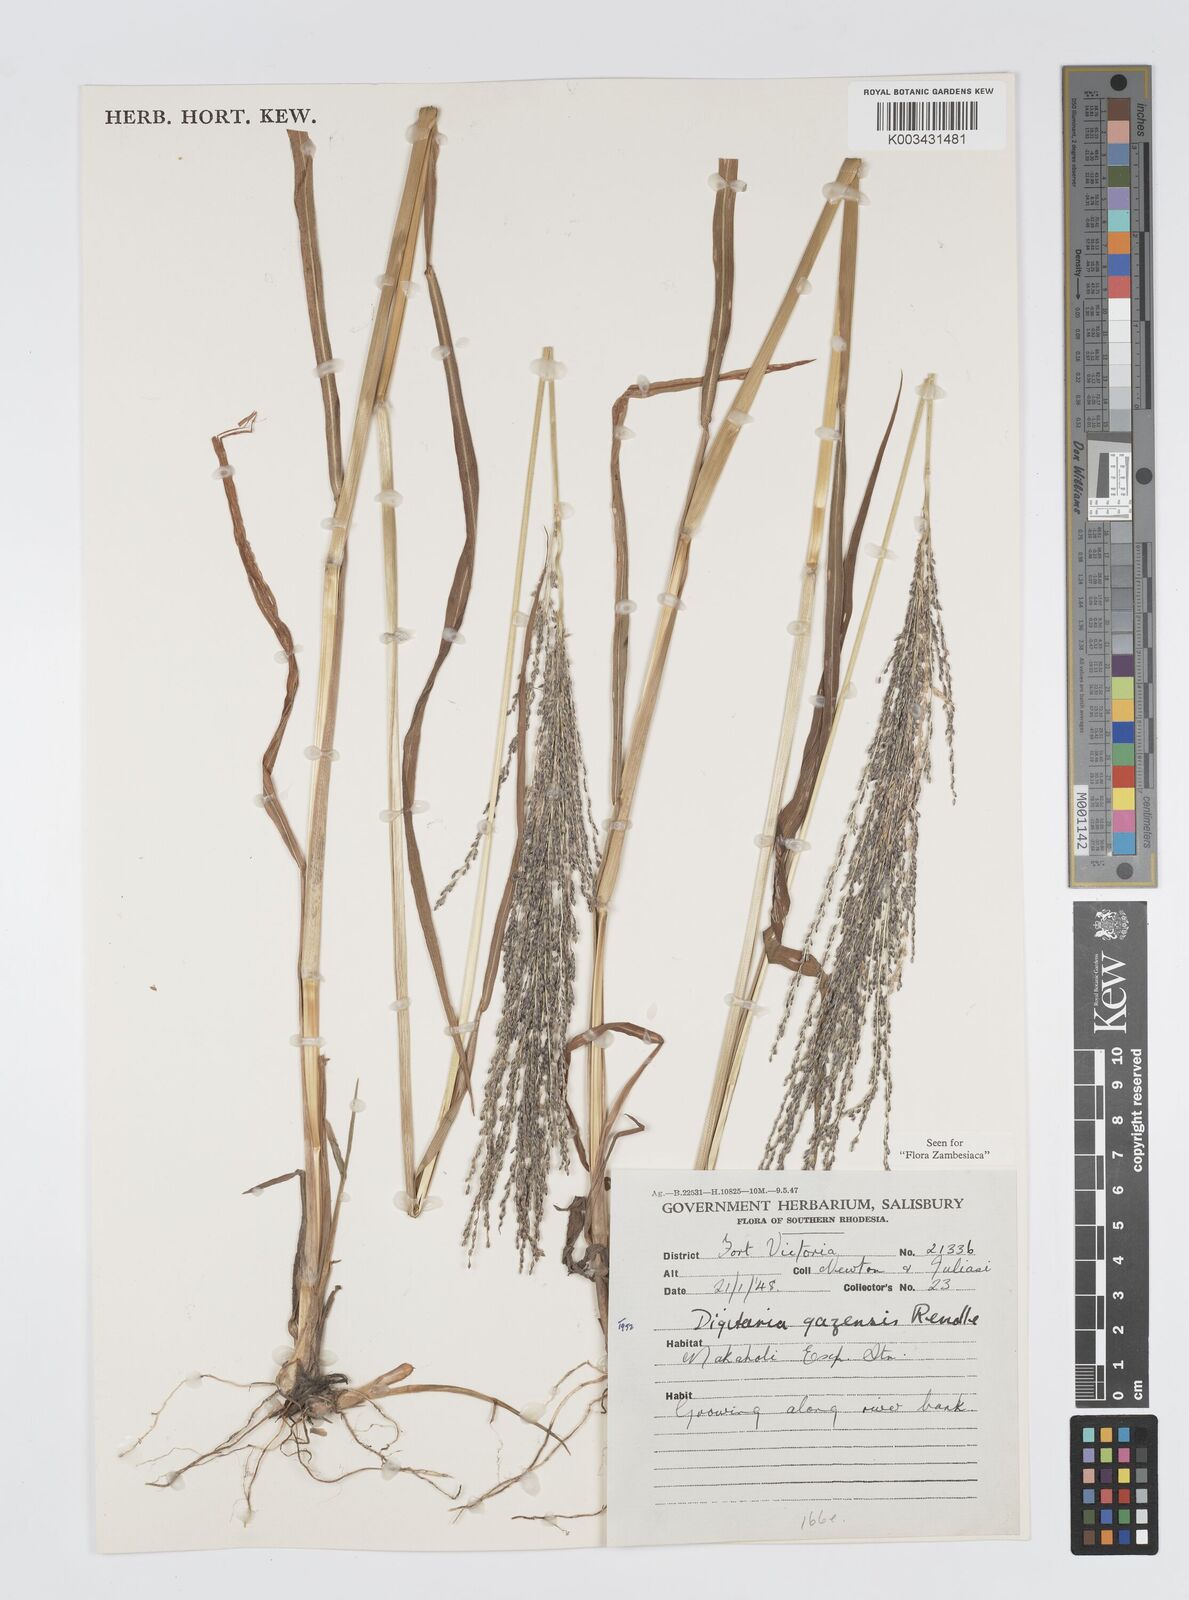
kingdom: Plantae
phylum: Tracheophyta
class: Liliopsida
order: Poales
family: Poaceae
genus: Digitaria
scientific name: Digitaria gazensis
